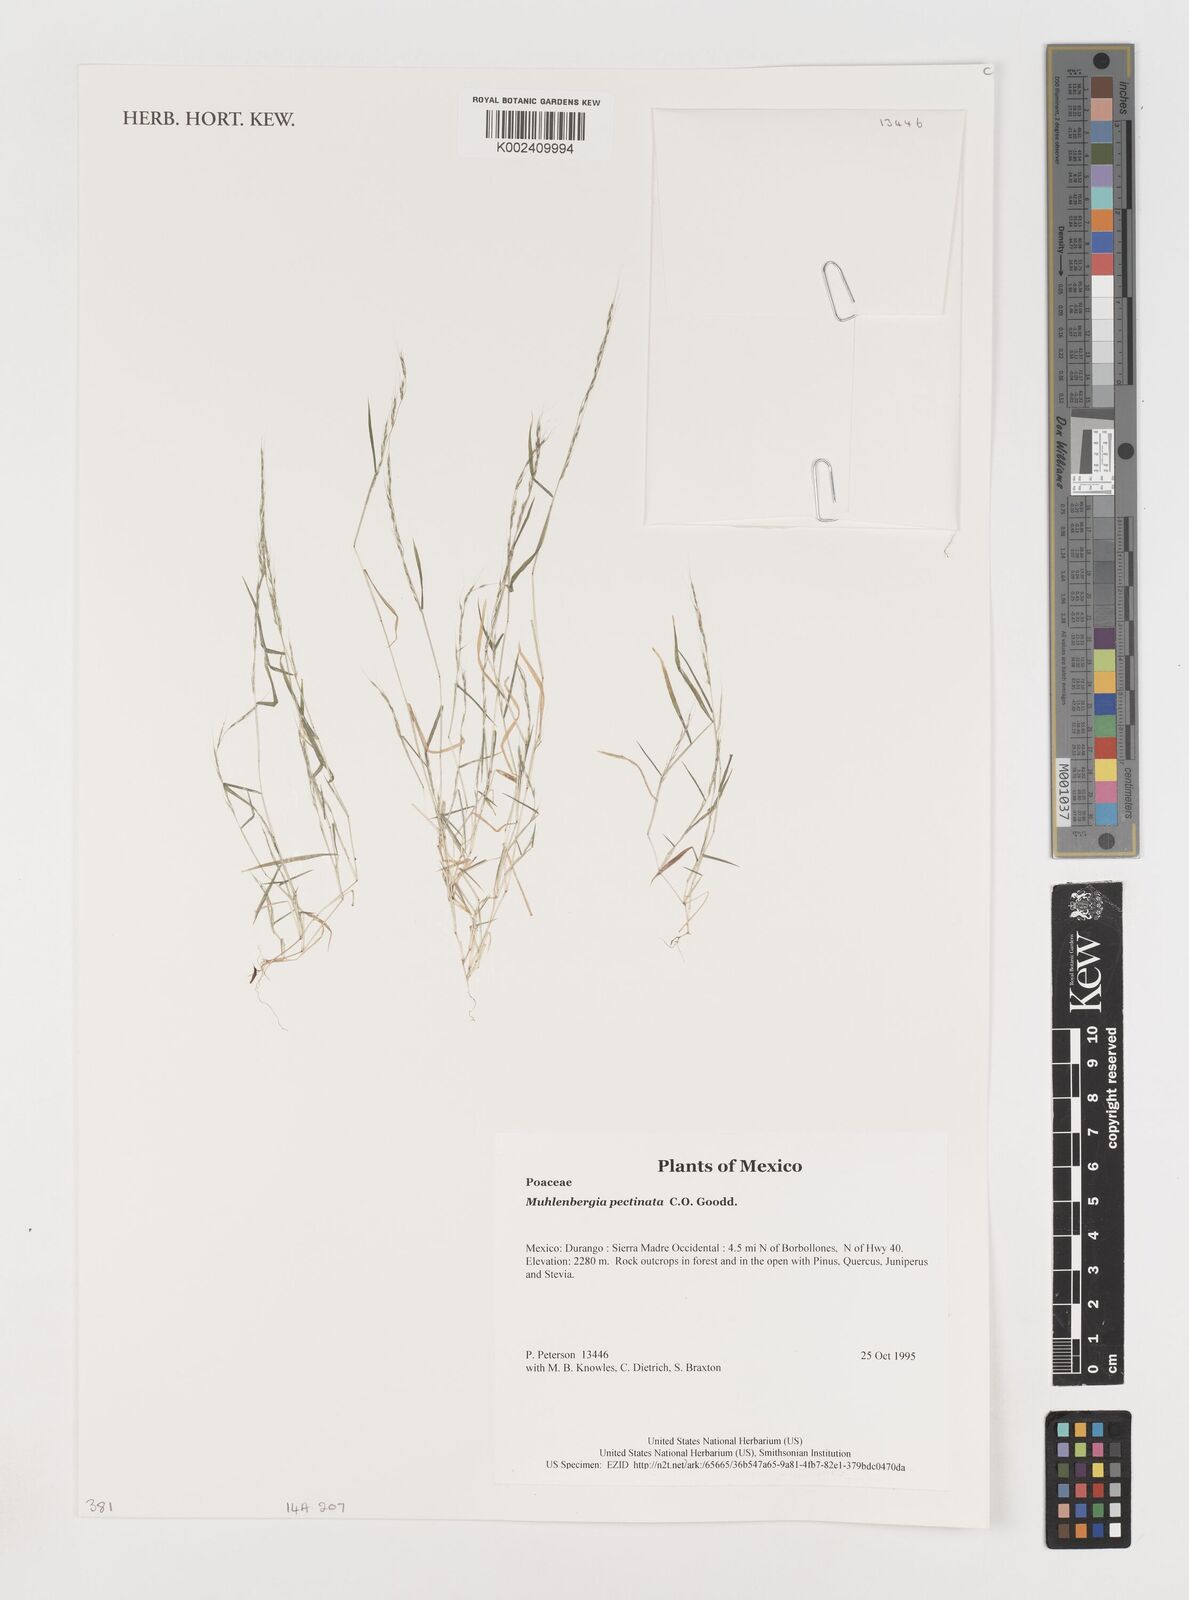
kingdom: Plantae
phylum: Tracheophyta
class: Liliopsida
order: Poales
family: Poaceae
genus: Muhlenbergia
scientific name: Muhlenbergia pectinata
